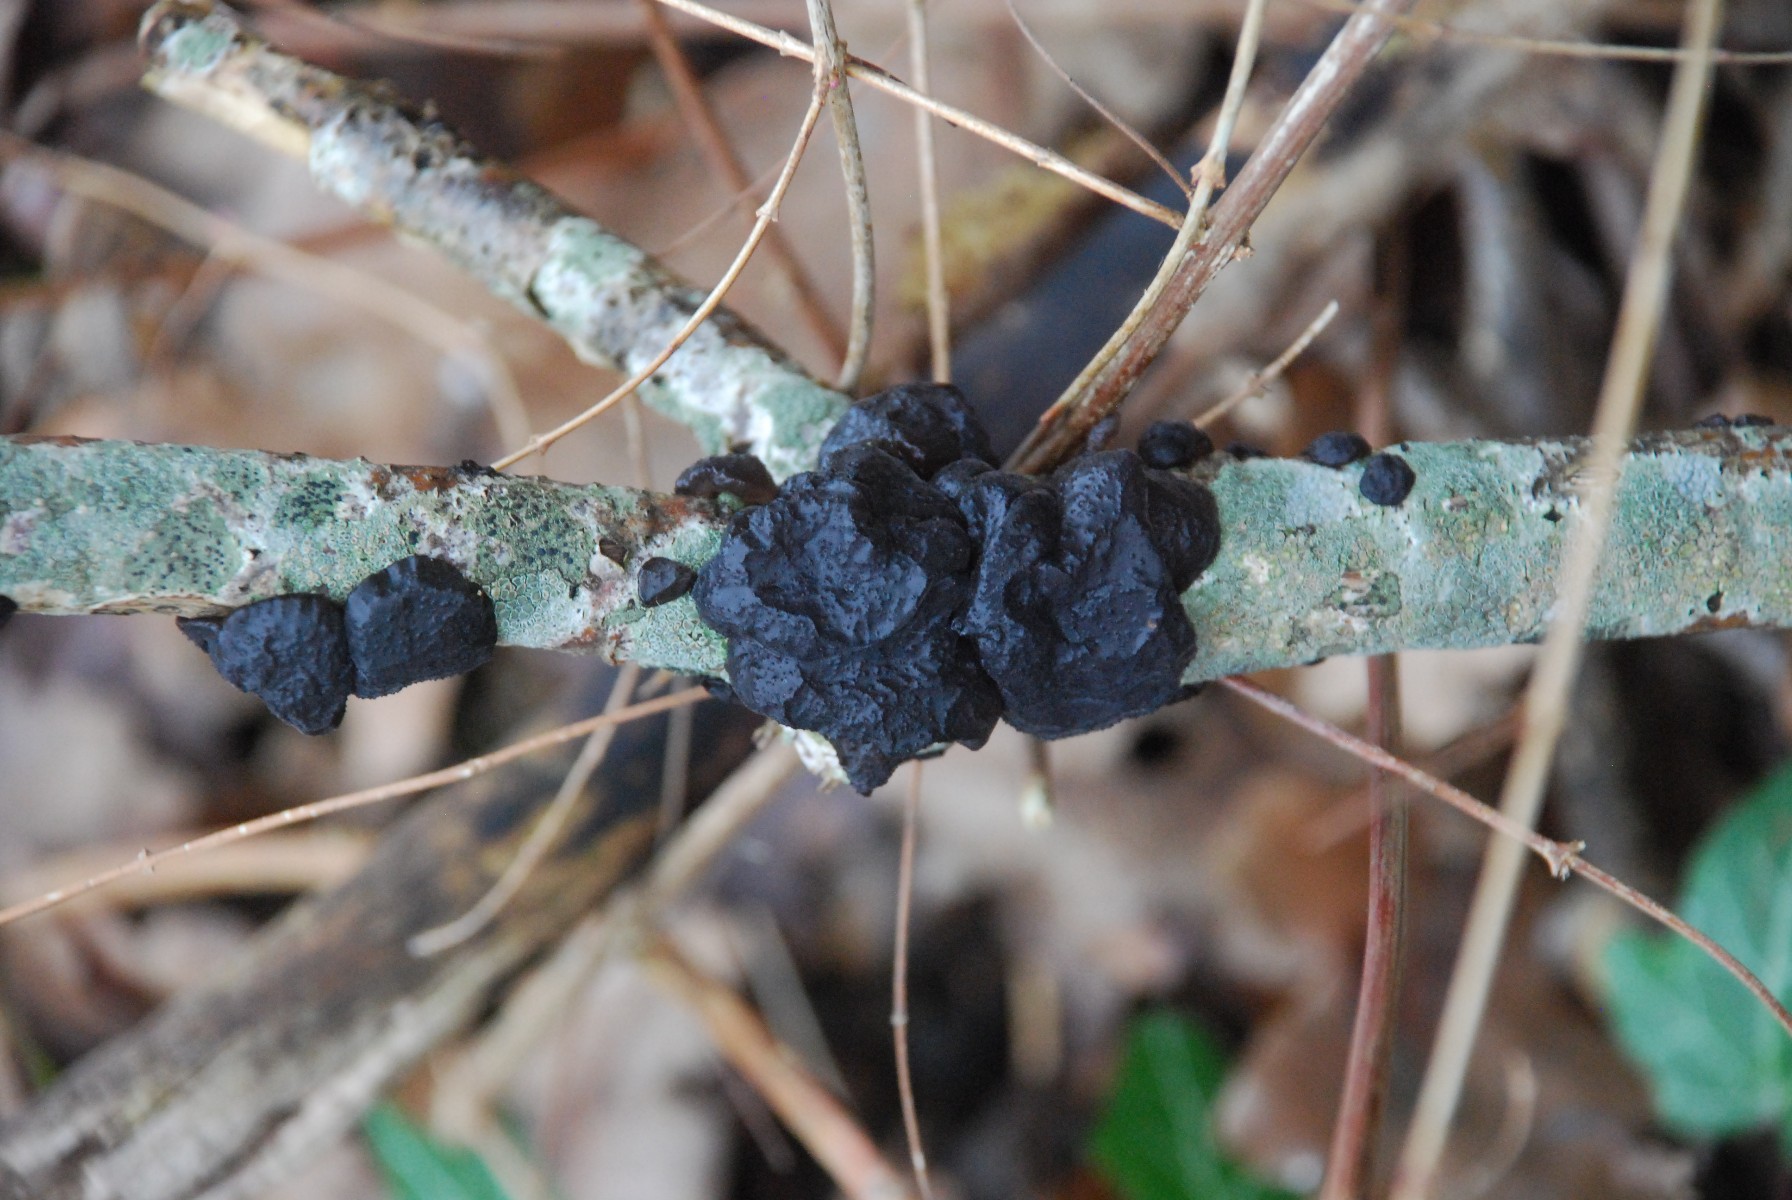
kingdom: Fungi
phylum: Basidiomycota
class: Agaricomycetes
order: Auriculariales
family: Auriculariaceae
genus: Exidia
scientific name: Exidia glandulosa
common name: ege-bævretop
